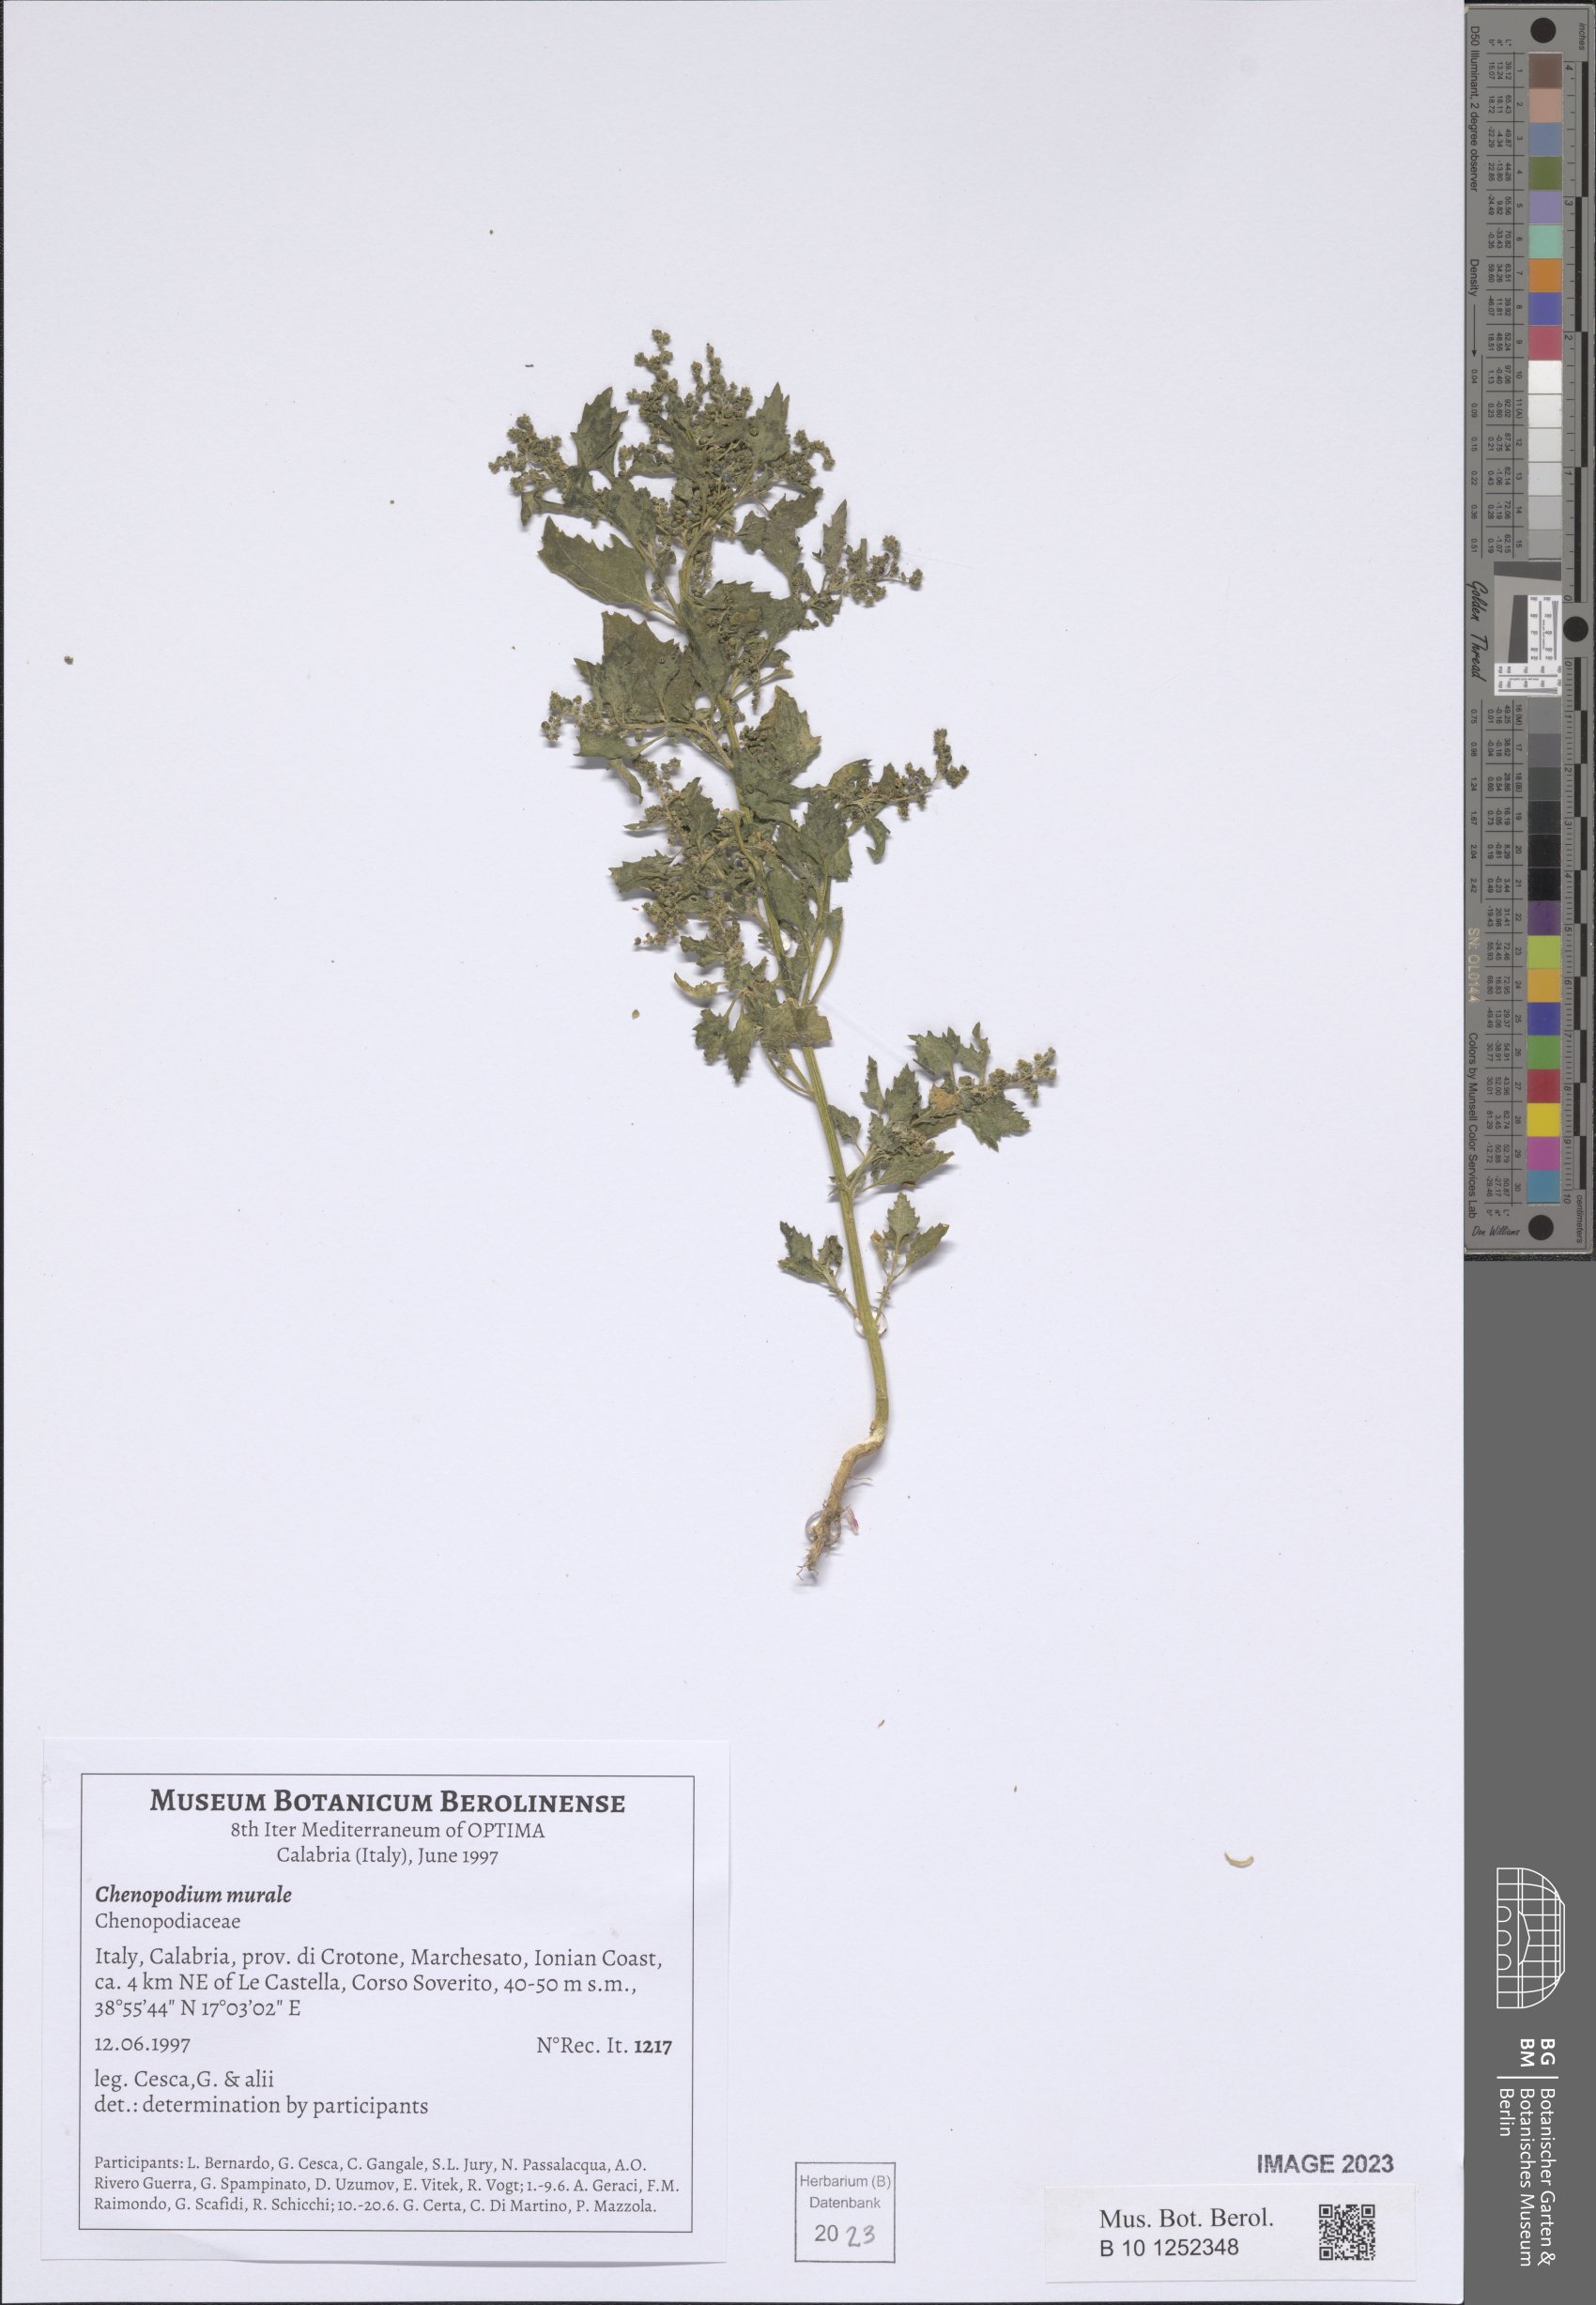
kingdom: Plantae
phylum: Tracheophyta
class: Magnoliopsida
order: Caryophyllales
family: Amaranthaceae
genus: Chenopodiastrum
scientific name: Chenopodiastrum murale
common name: Sowbane
